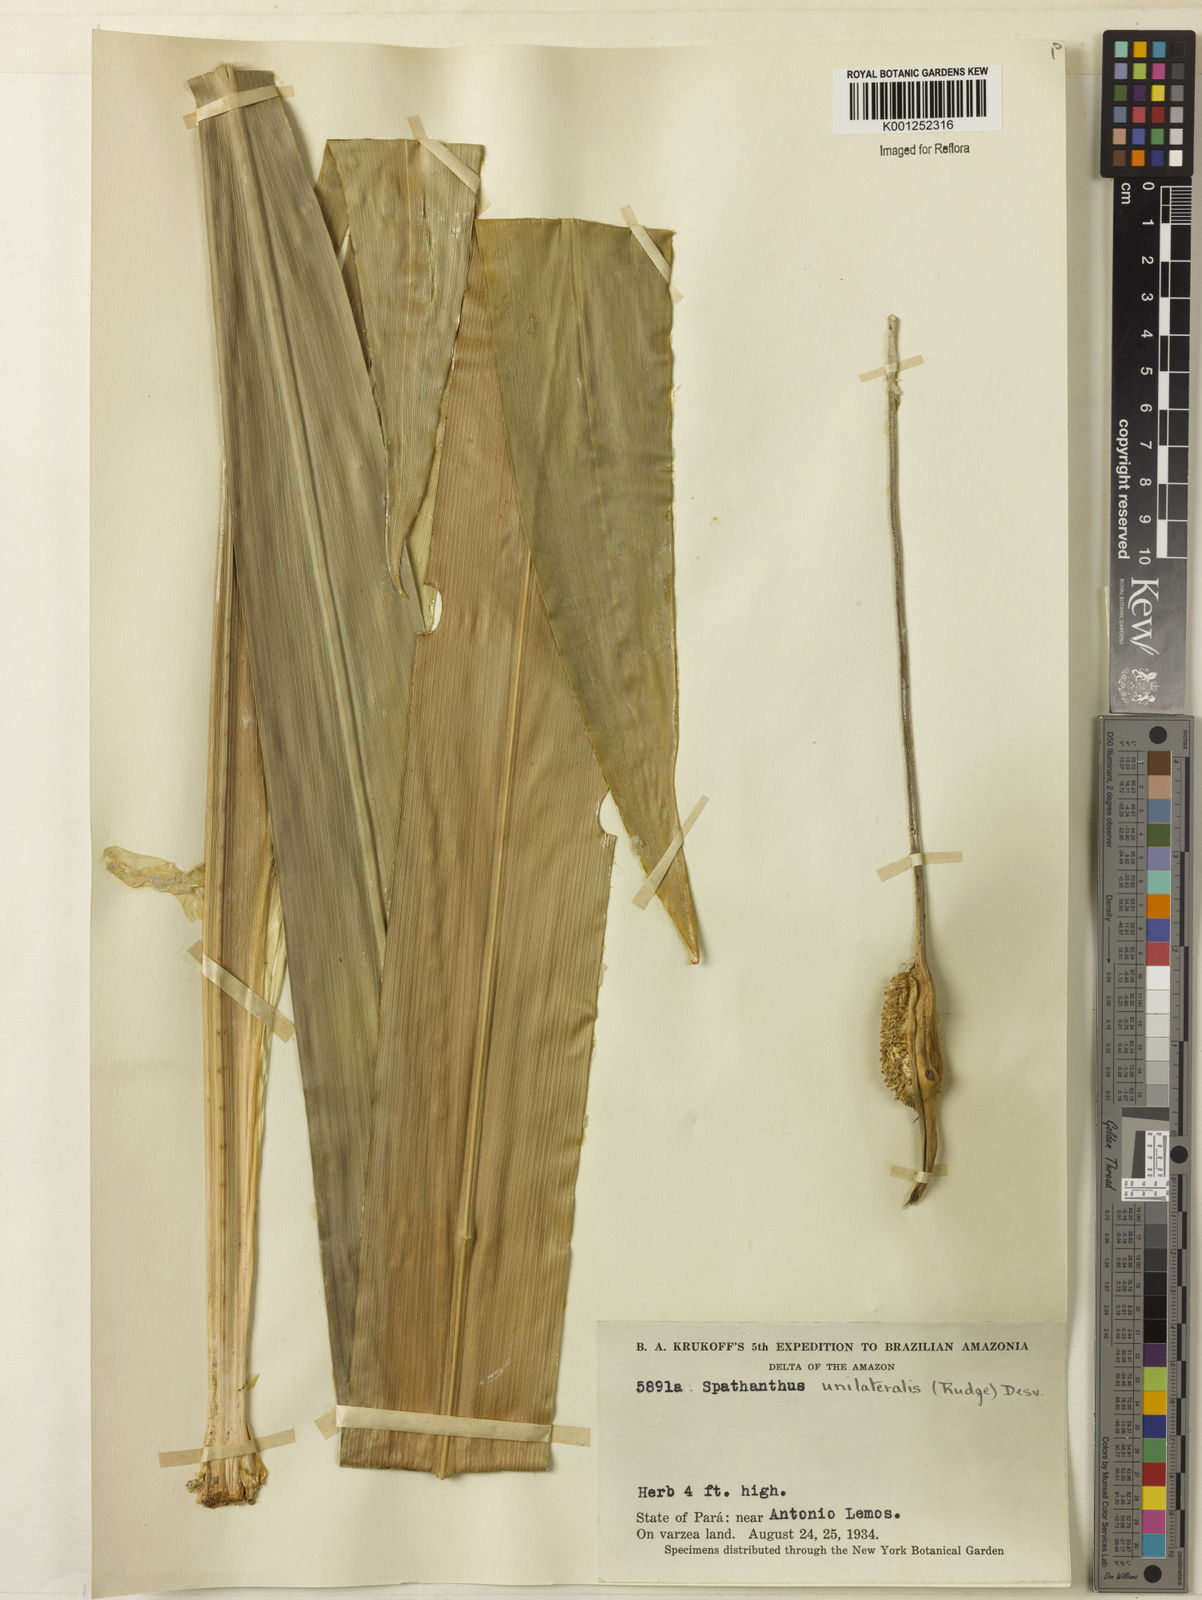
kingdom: Plantae
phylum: Tracheophyta
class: Liliopsida
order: Poales
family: Rapateaceae
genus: Spathanthus
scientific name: Spathanthus unilateralis
